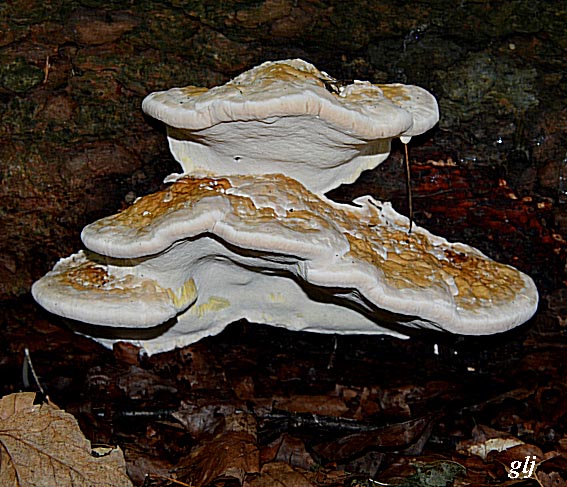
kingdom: Fungi
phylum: Basidiomycota
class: Agaricomycetes
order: Polyporales
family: Fomitopsidaceae
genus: Fomitopsis
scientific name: Fomitopsis pinicola
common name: randbæltet hovporesvamp
